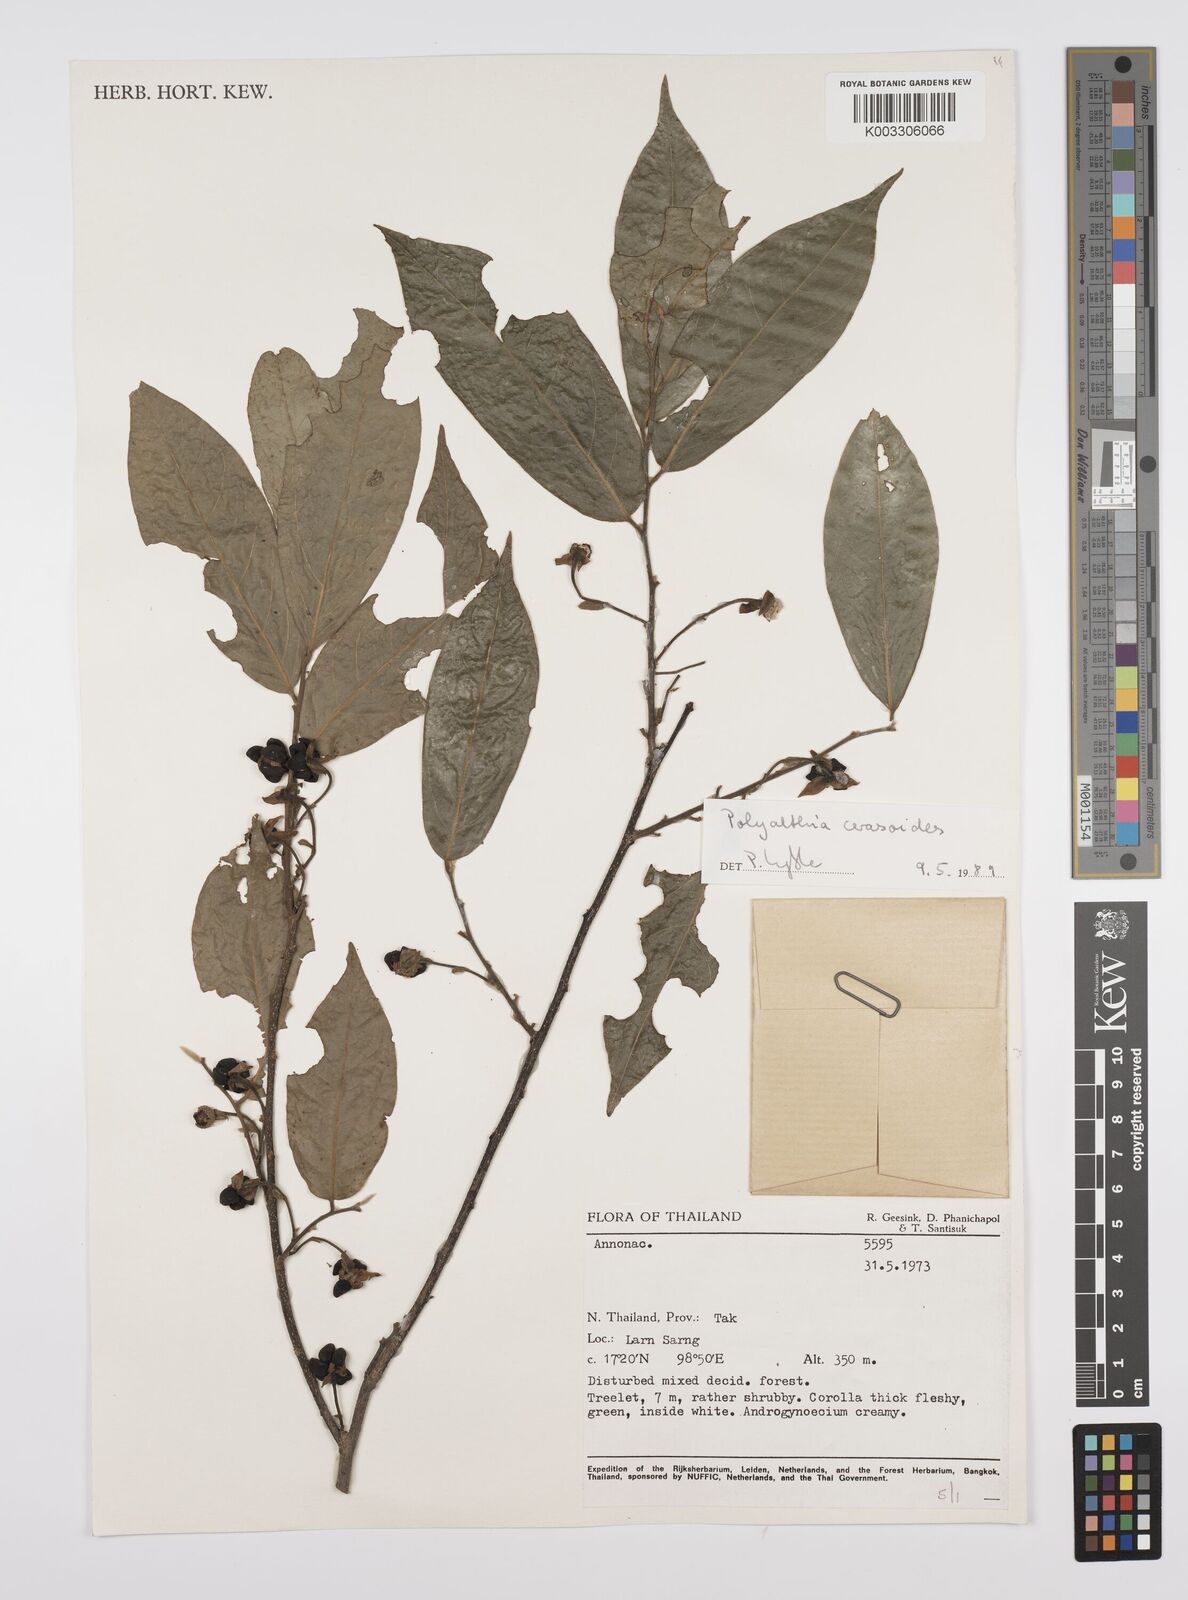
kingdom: Plantae
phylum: Tracheophyta
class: Magnoliopsida
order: Magnoliales
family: Annonaceae
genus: Hubera
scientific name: Hubera cerasoides
